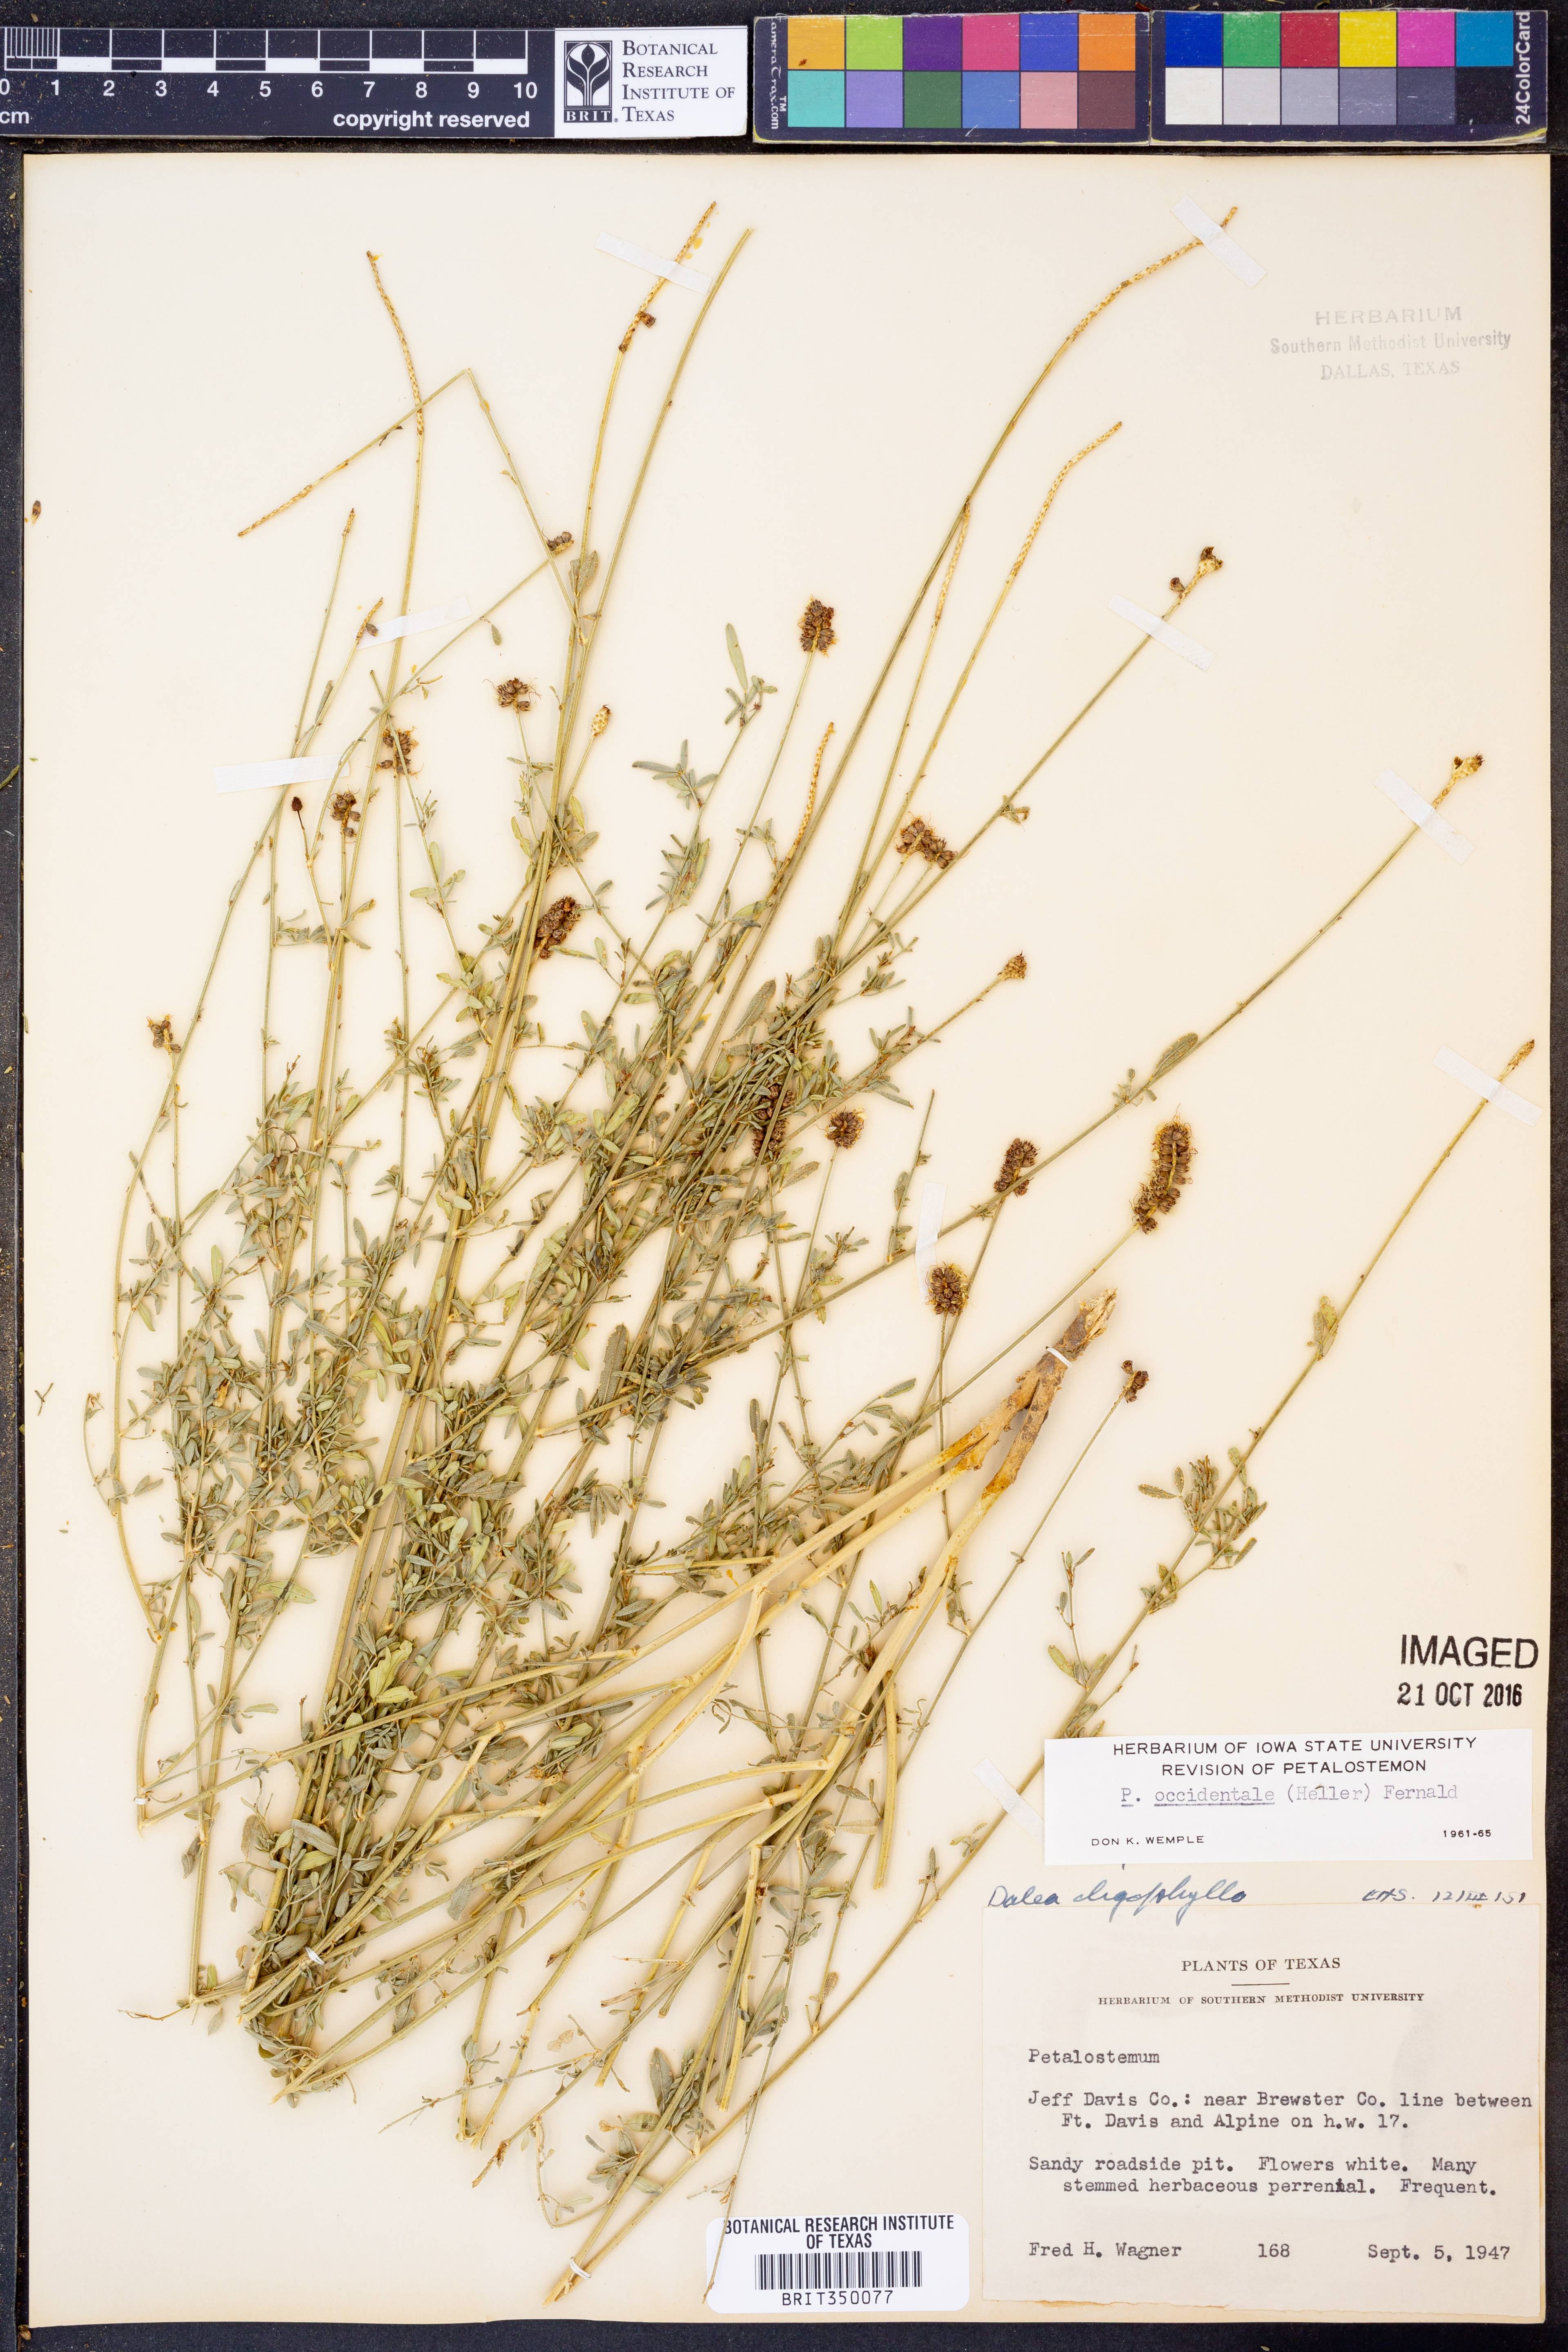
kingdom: Plantae
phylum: Tracheophyta
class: Magnoliopsida
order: Fabales
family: Fabaceae
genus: Dalea
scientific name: Dalea candida
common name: White prairie-clover
